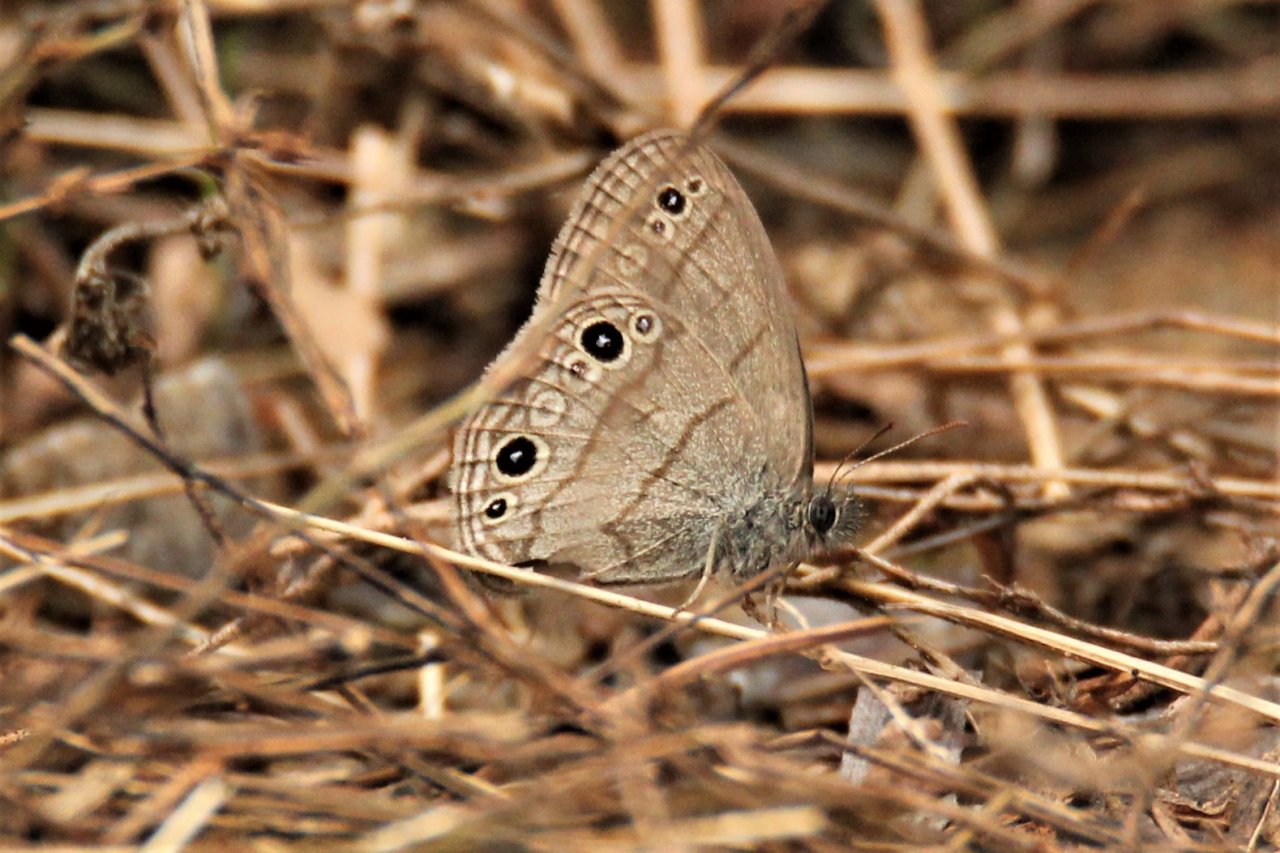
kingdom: Animalia
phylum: Arthropoda
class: Insecta
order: Lepidoptera
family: Nymphalidae
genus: Hermeuptychia
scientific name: Hermeuptychia hermes
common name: Carolina Satyr
